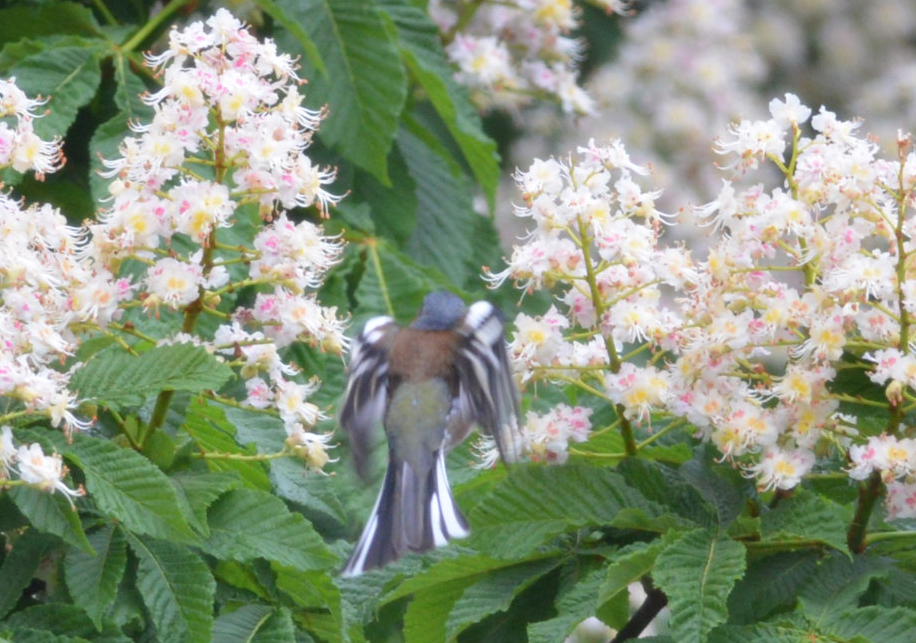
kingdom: Animalia
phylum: Chordata
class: Aves
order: Passeriformes
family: Fringillidae
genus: Fringilla
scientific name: Fringilla coelebs
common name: Common chaffinch
